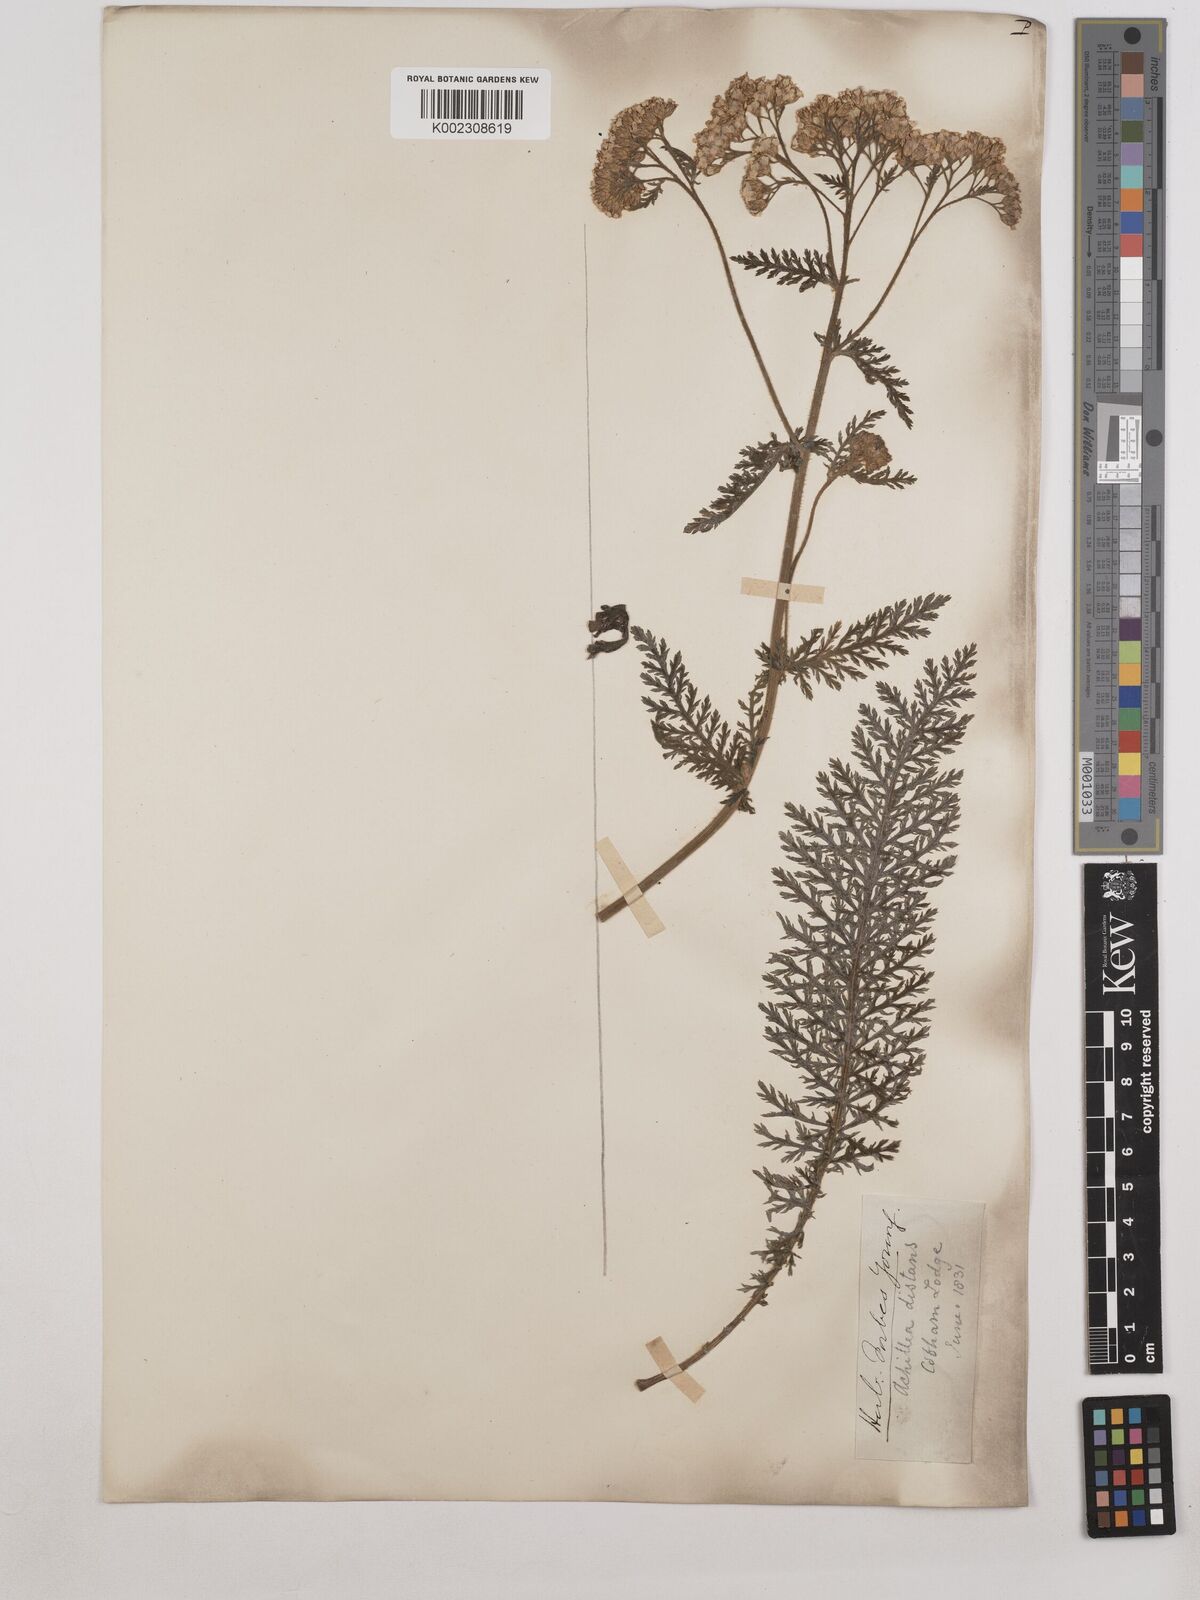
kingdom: Plantae
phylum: Tracheophyta
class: Magnoliopsida
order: Asterales
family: Asteraceae
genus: Achillea
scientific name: Achillea distans
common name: Tall yarrow
